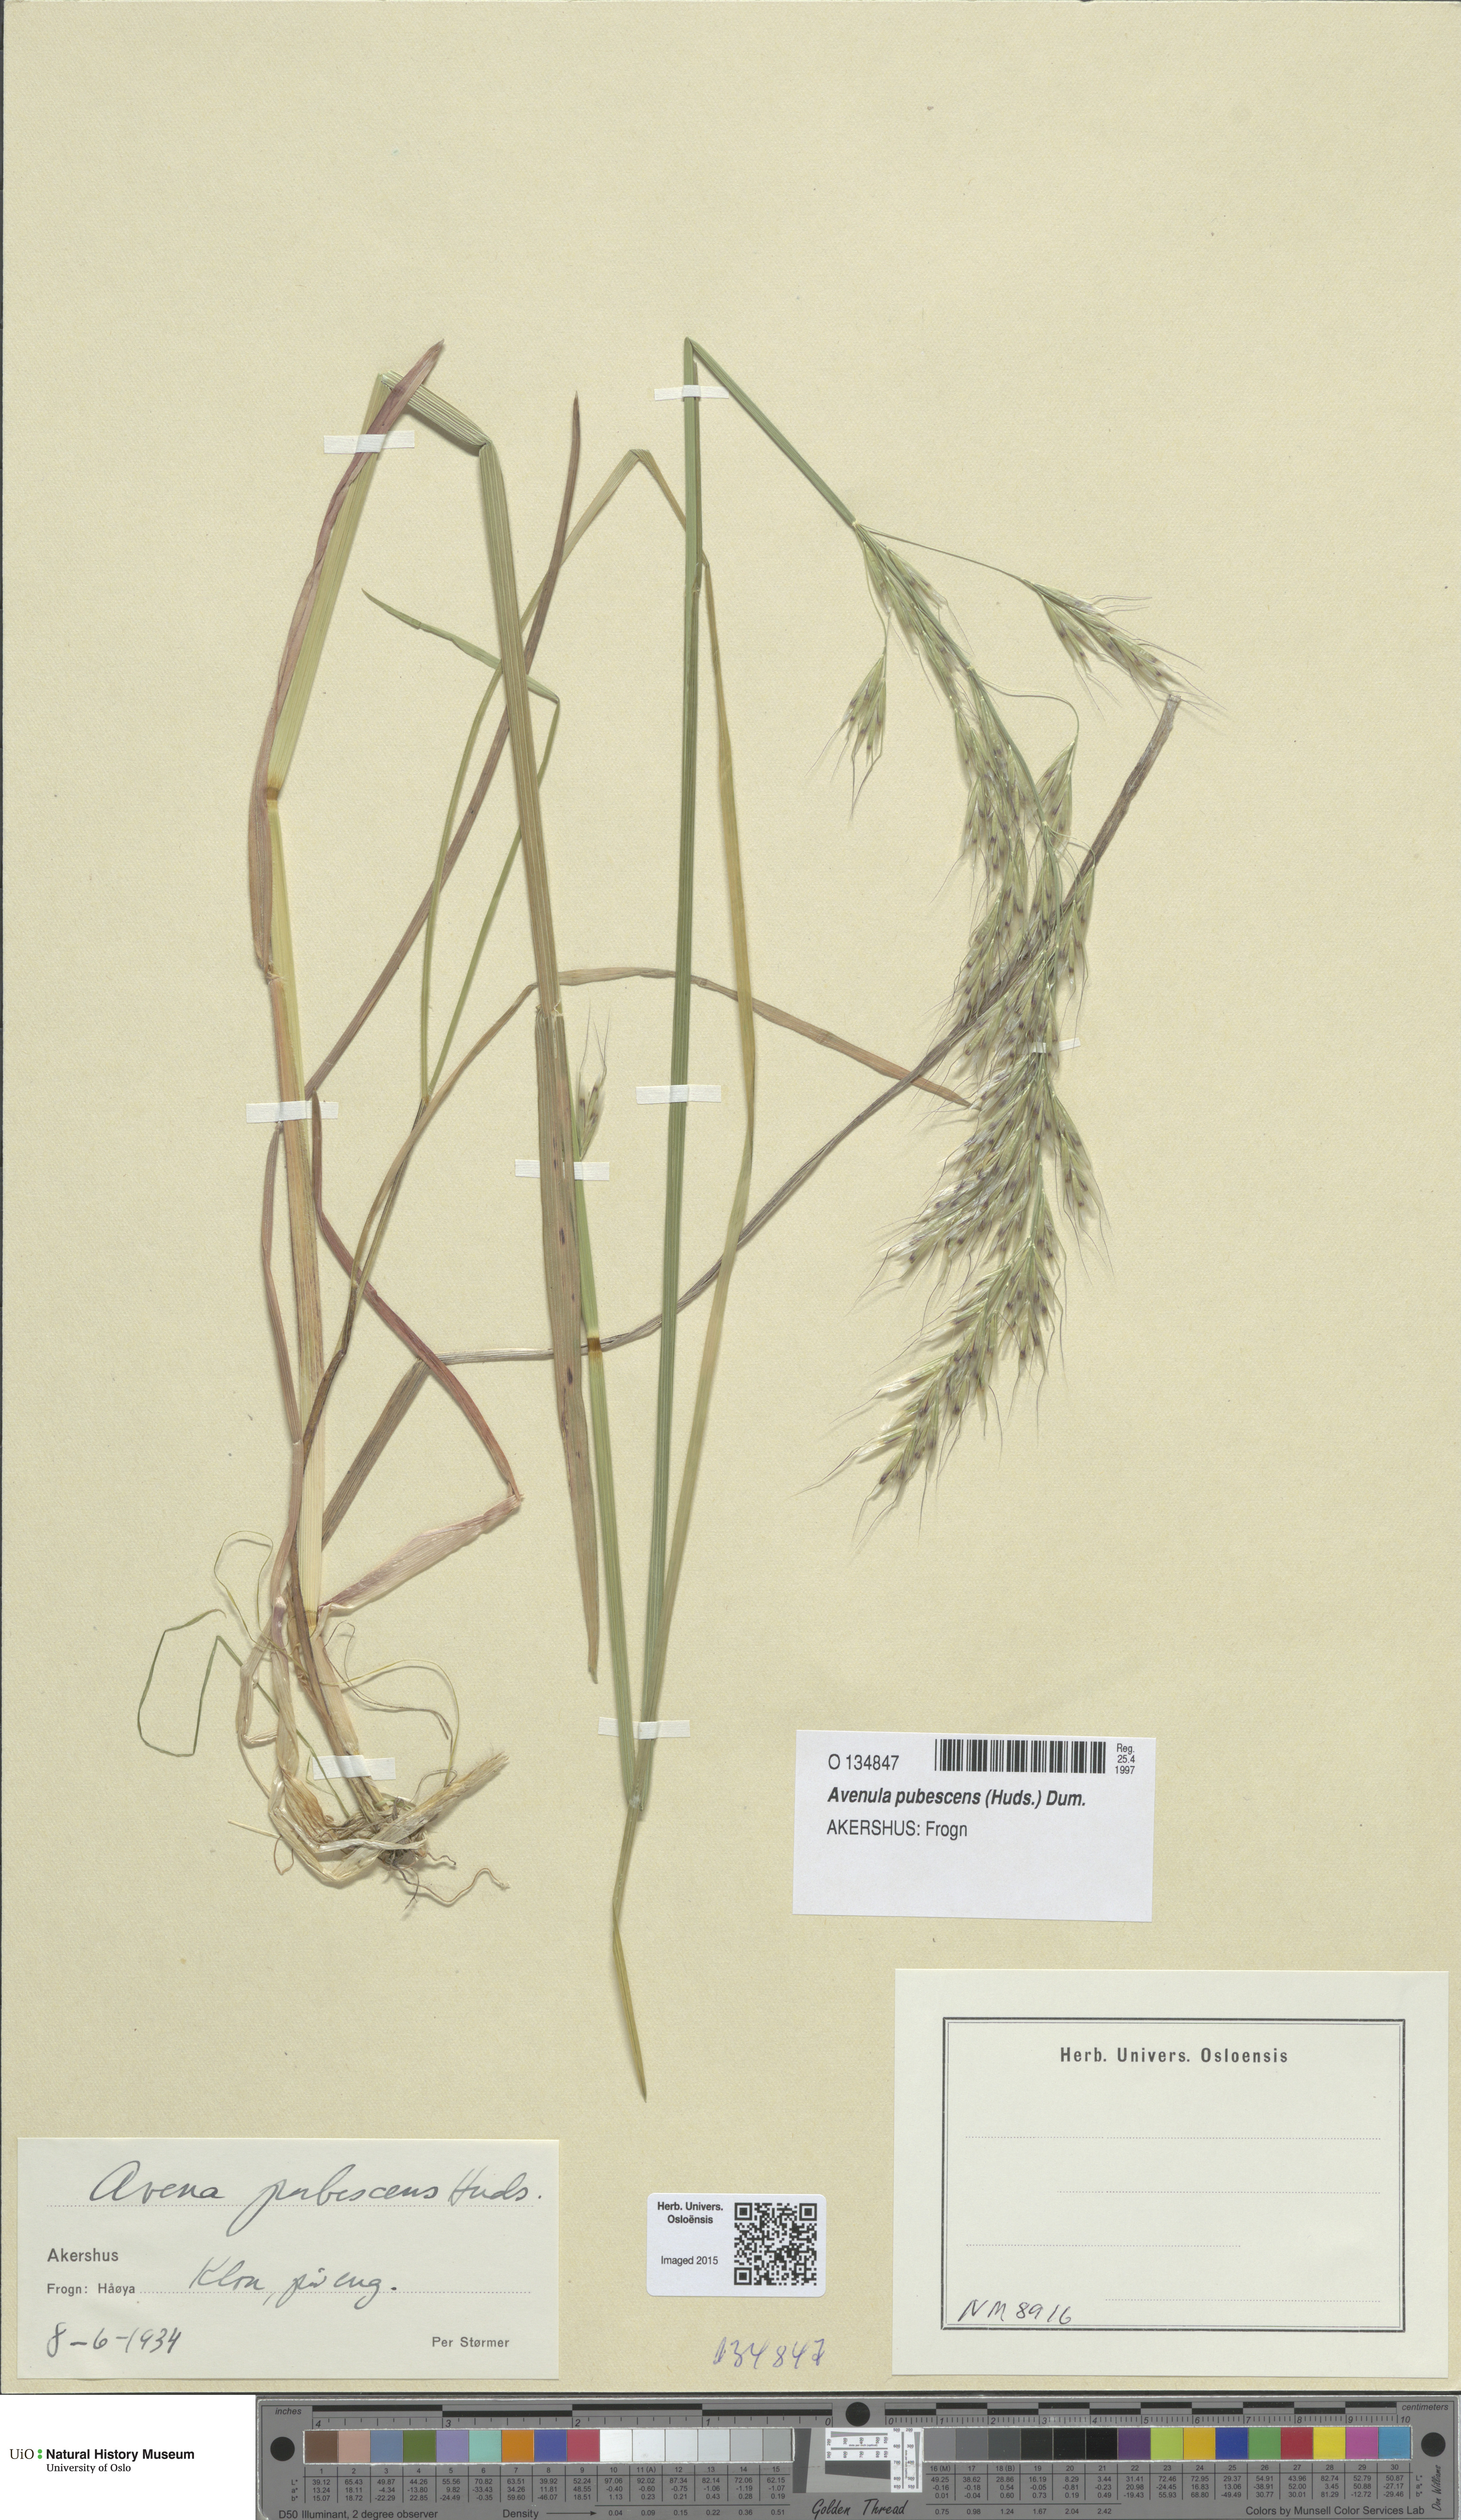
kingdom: Plantae
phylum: Tracheophyta
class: Liliopsida
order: Poales
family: Poaceae
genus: Avenula
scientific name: Avenula pubescens
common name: Downy alpine oatgrass
